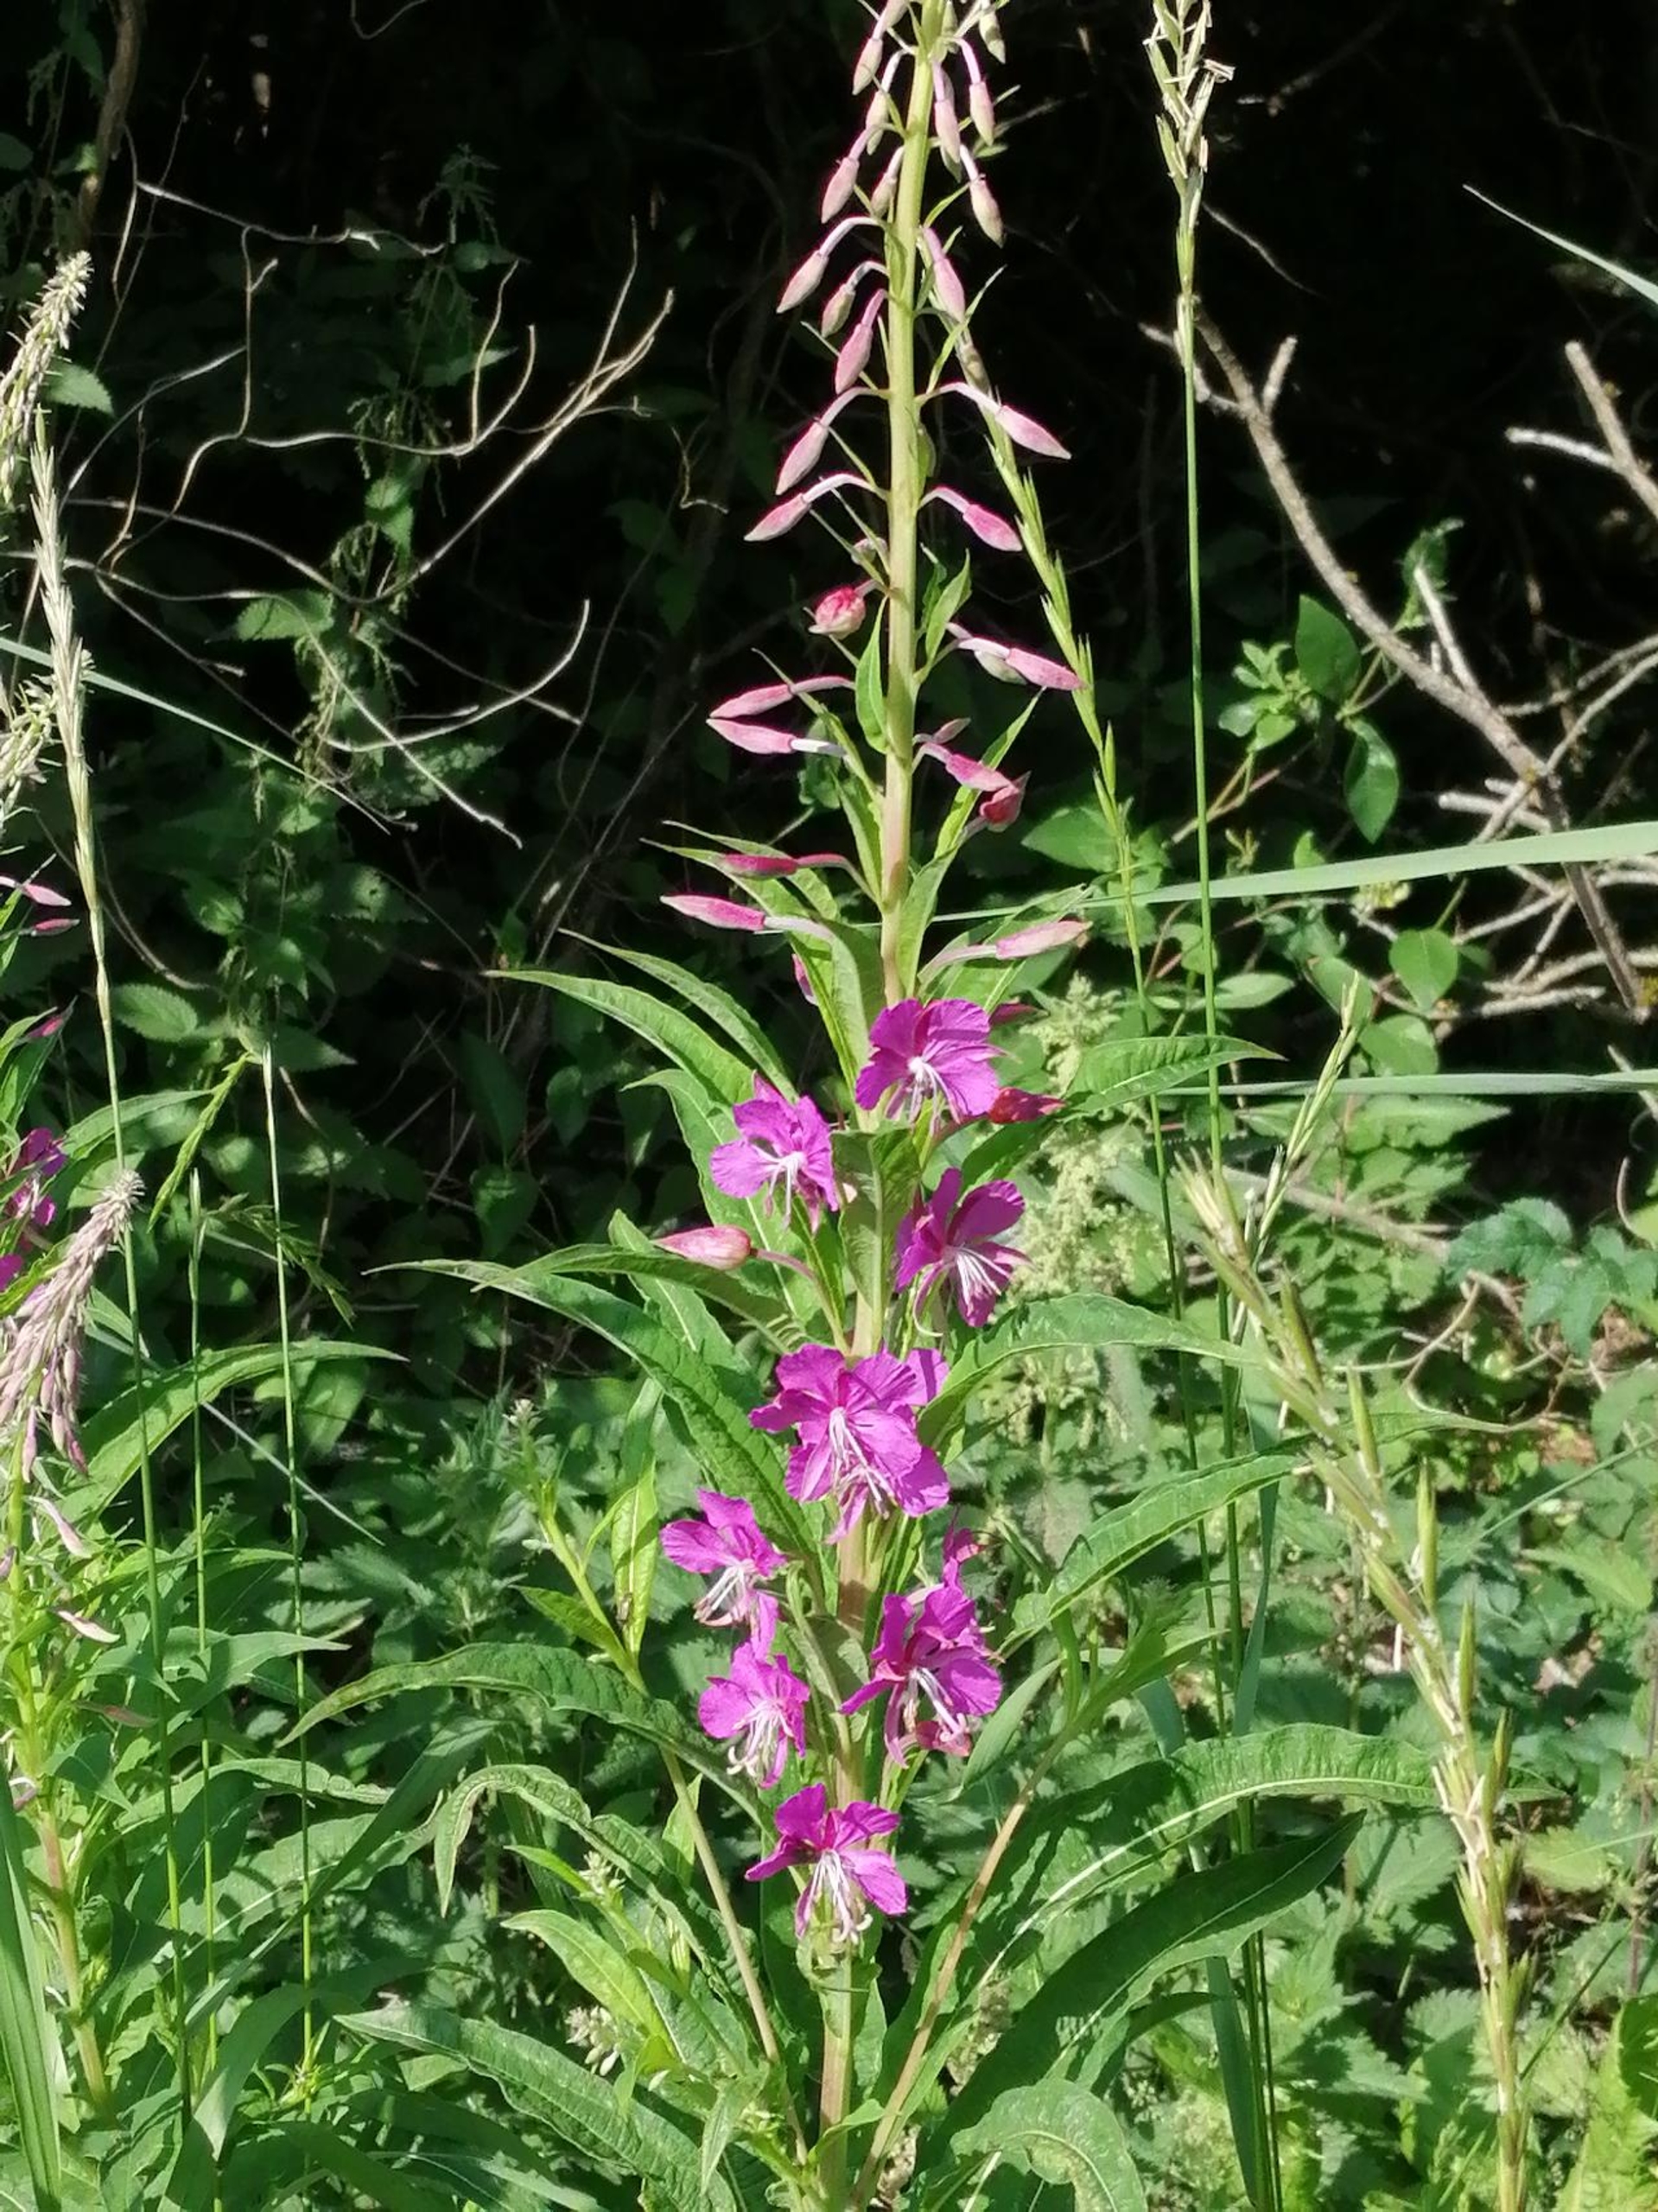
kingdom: Plantae
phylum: Tracheophyta
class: Magnoliopsida
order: Myrtales
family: Onagraceae
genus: Chamaenerion
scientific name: Chamaenerion angustifolium
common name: Gederams
